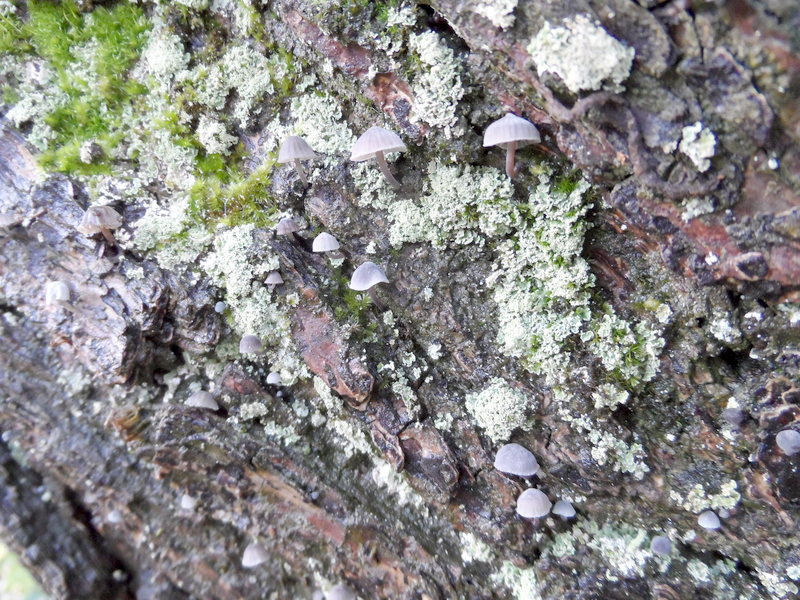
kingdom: Plantae
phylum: Tracheophyta
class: Magnoliopsida
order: Sapindales
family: Sapindaceae
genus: Koelreuteria
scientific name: Koelreuteria paniculata
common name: Pride-of-india
